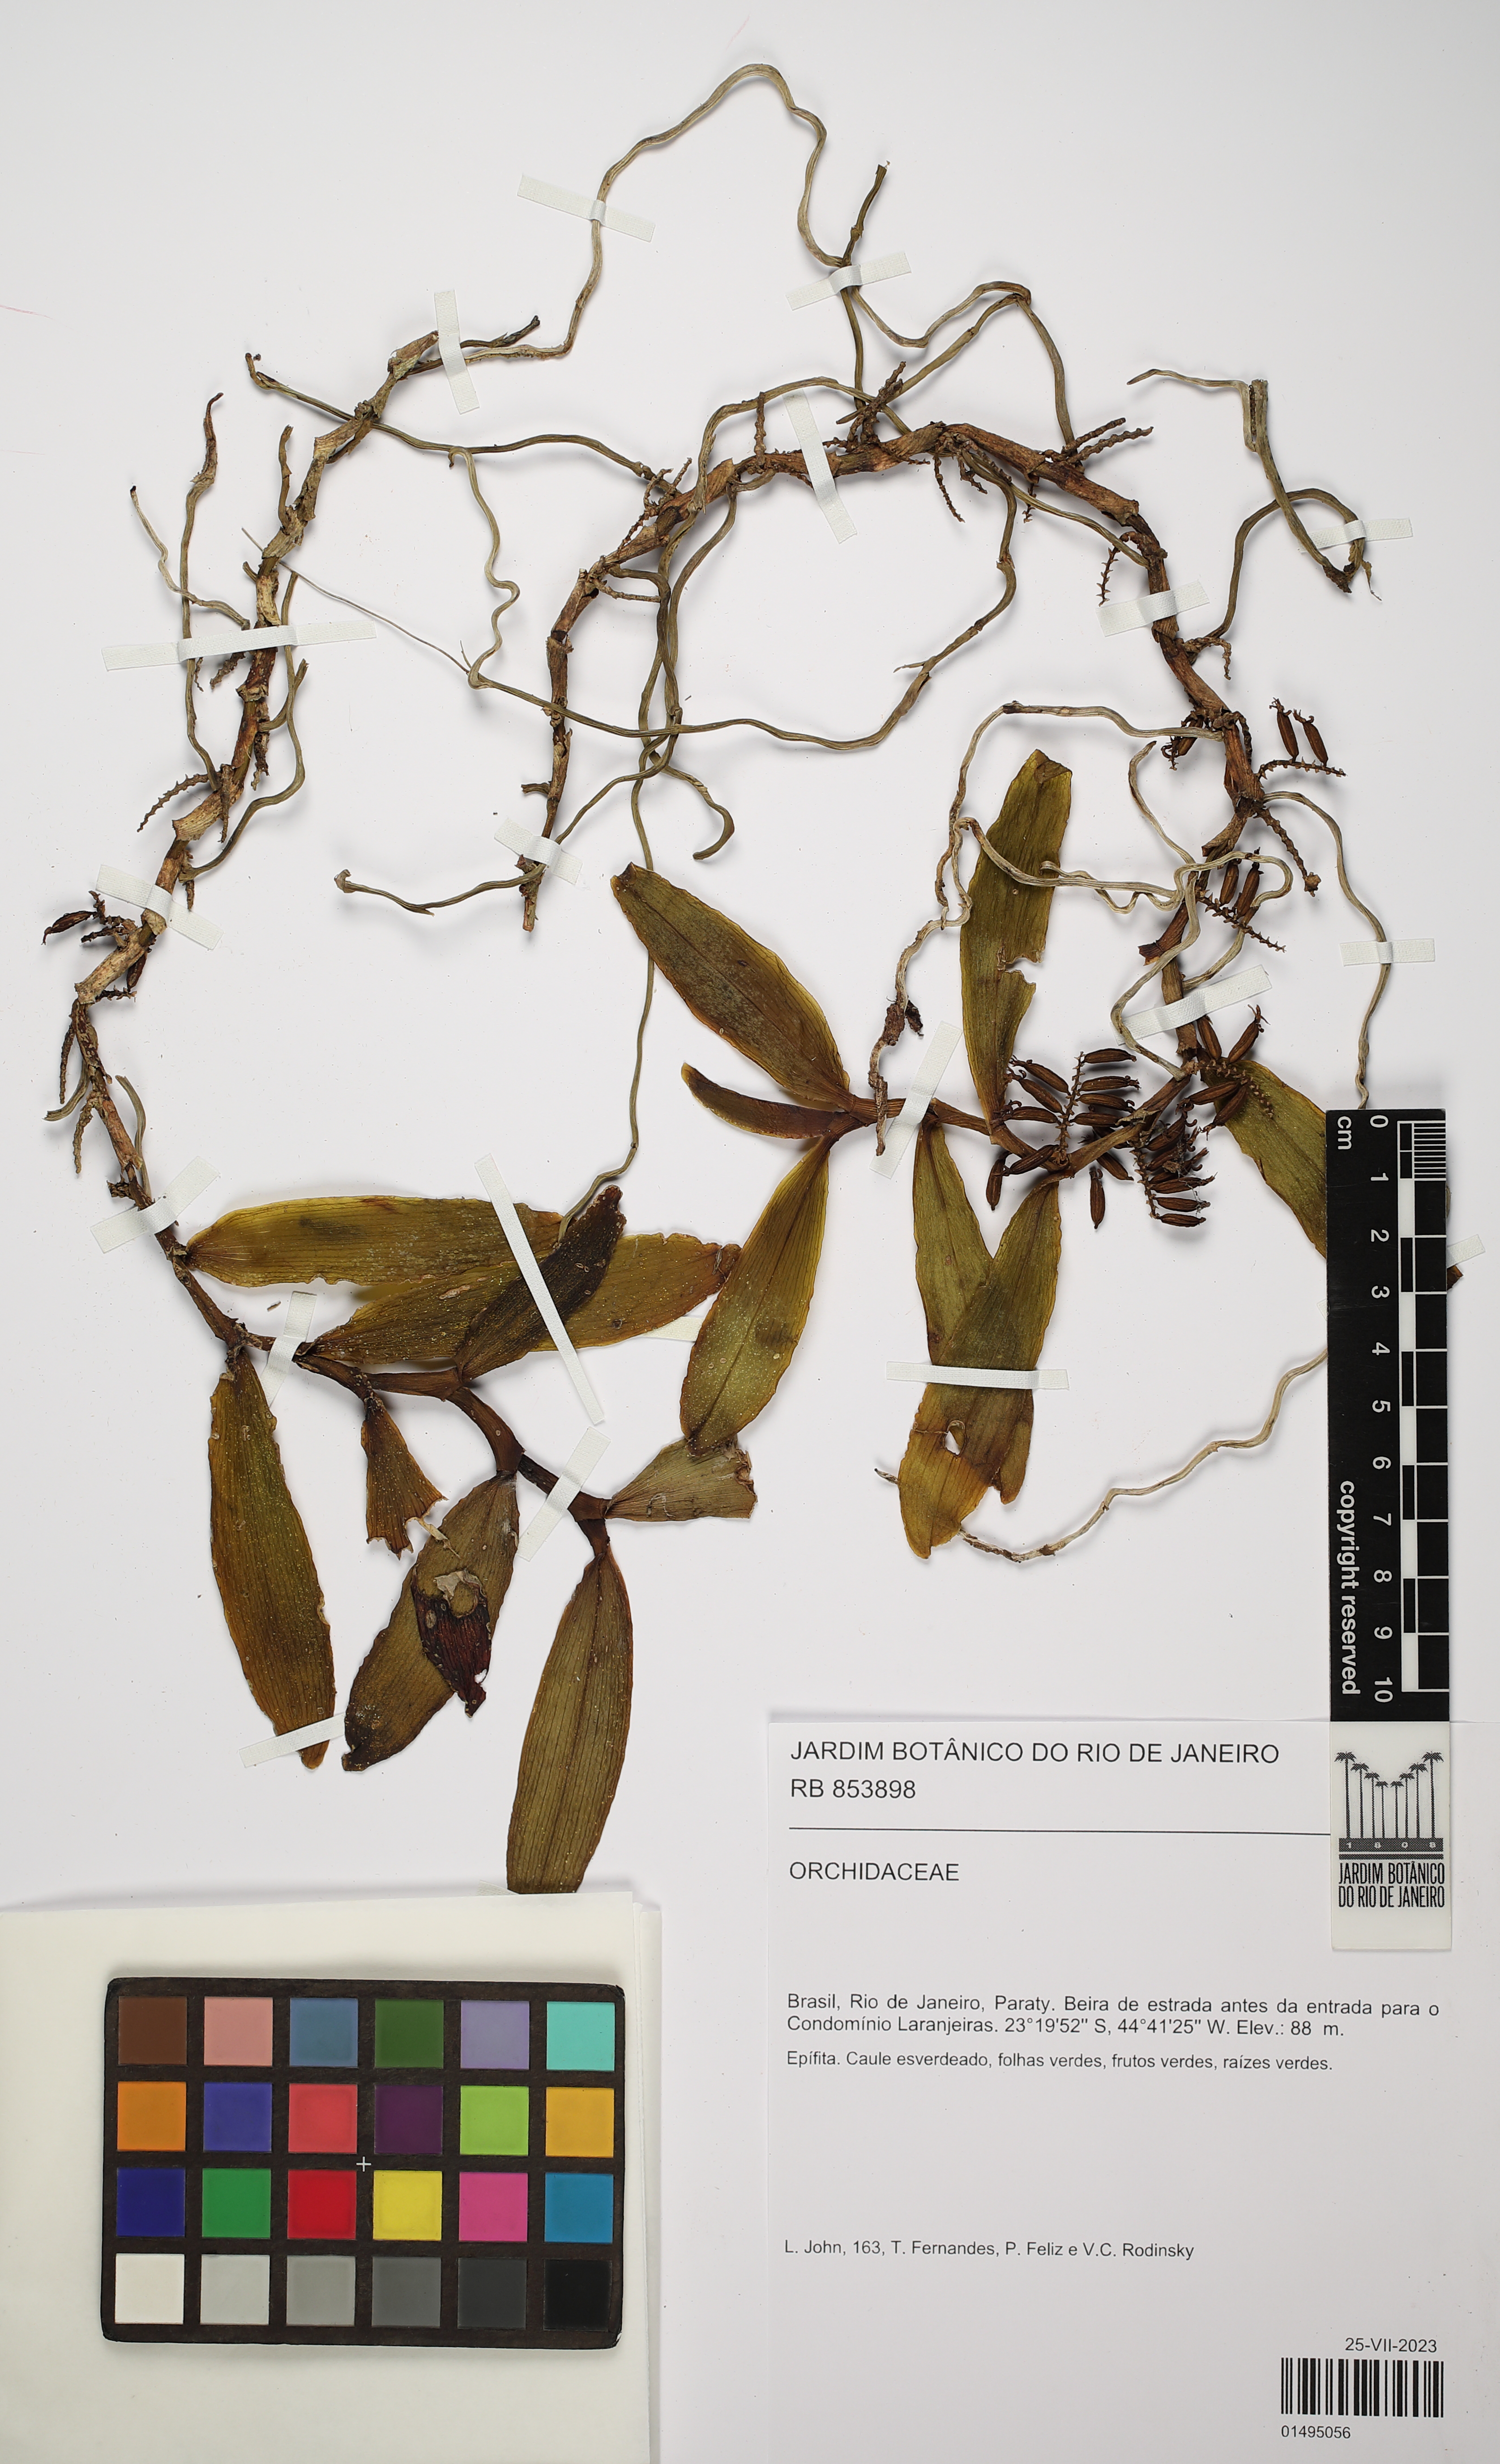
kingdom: Plantae
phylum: Tracheophyta
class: Liliopsida
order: Asparagales
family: Orchidaceae
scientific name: Orchidaceae
